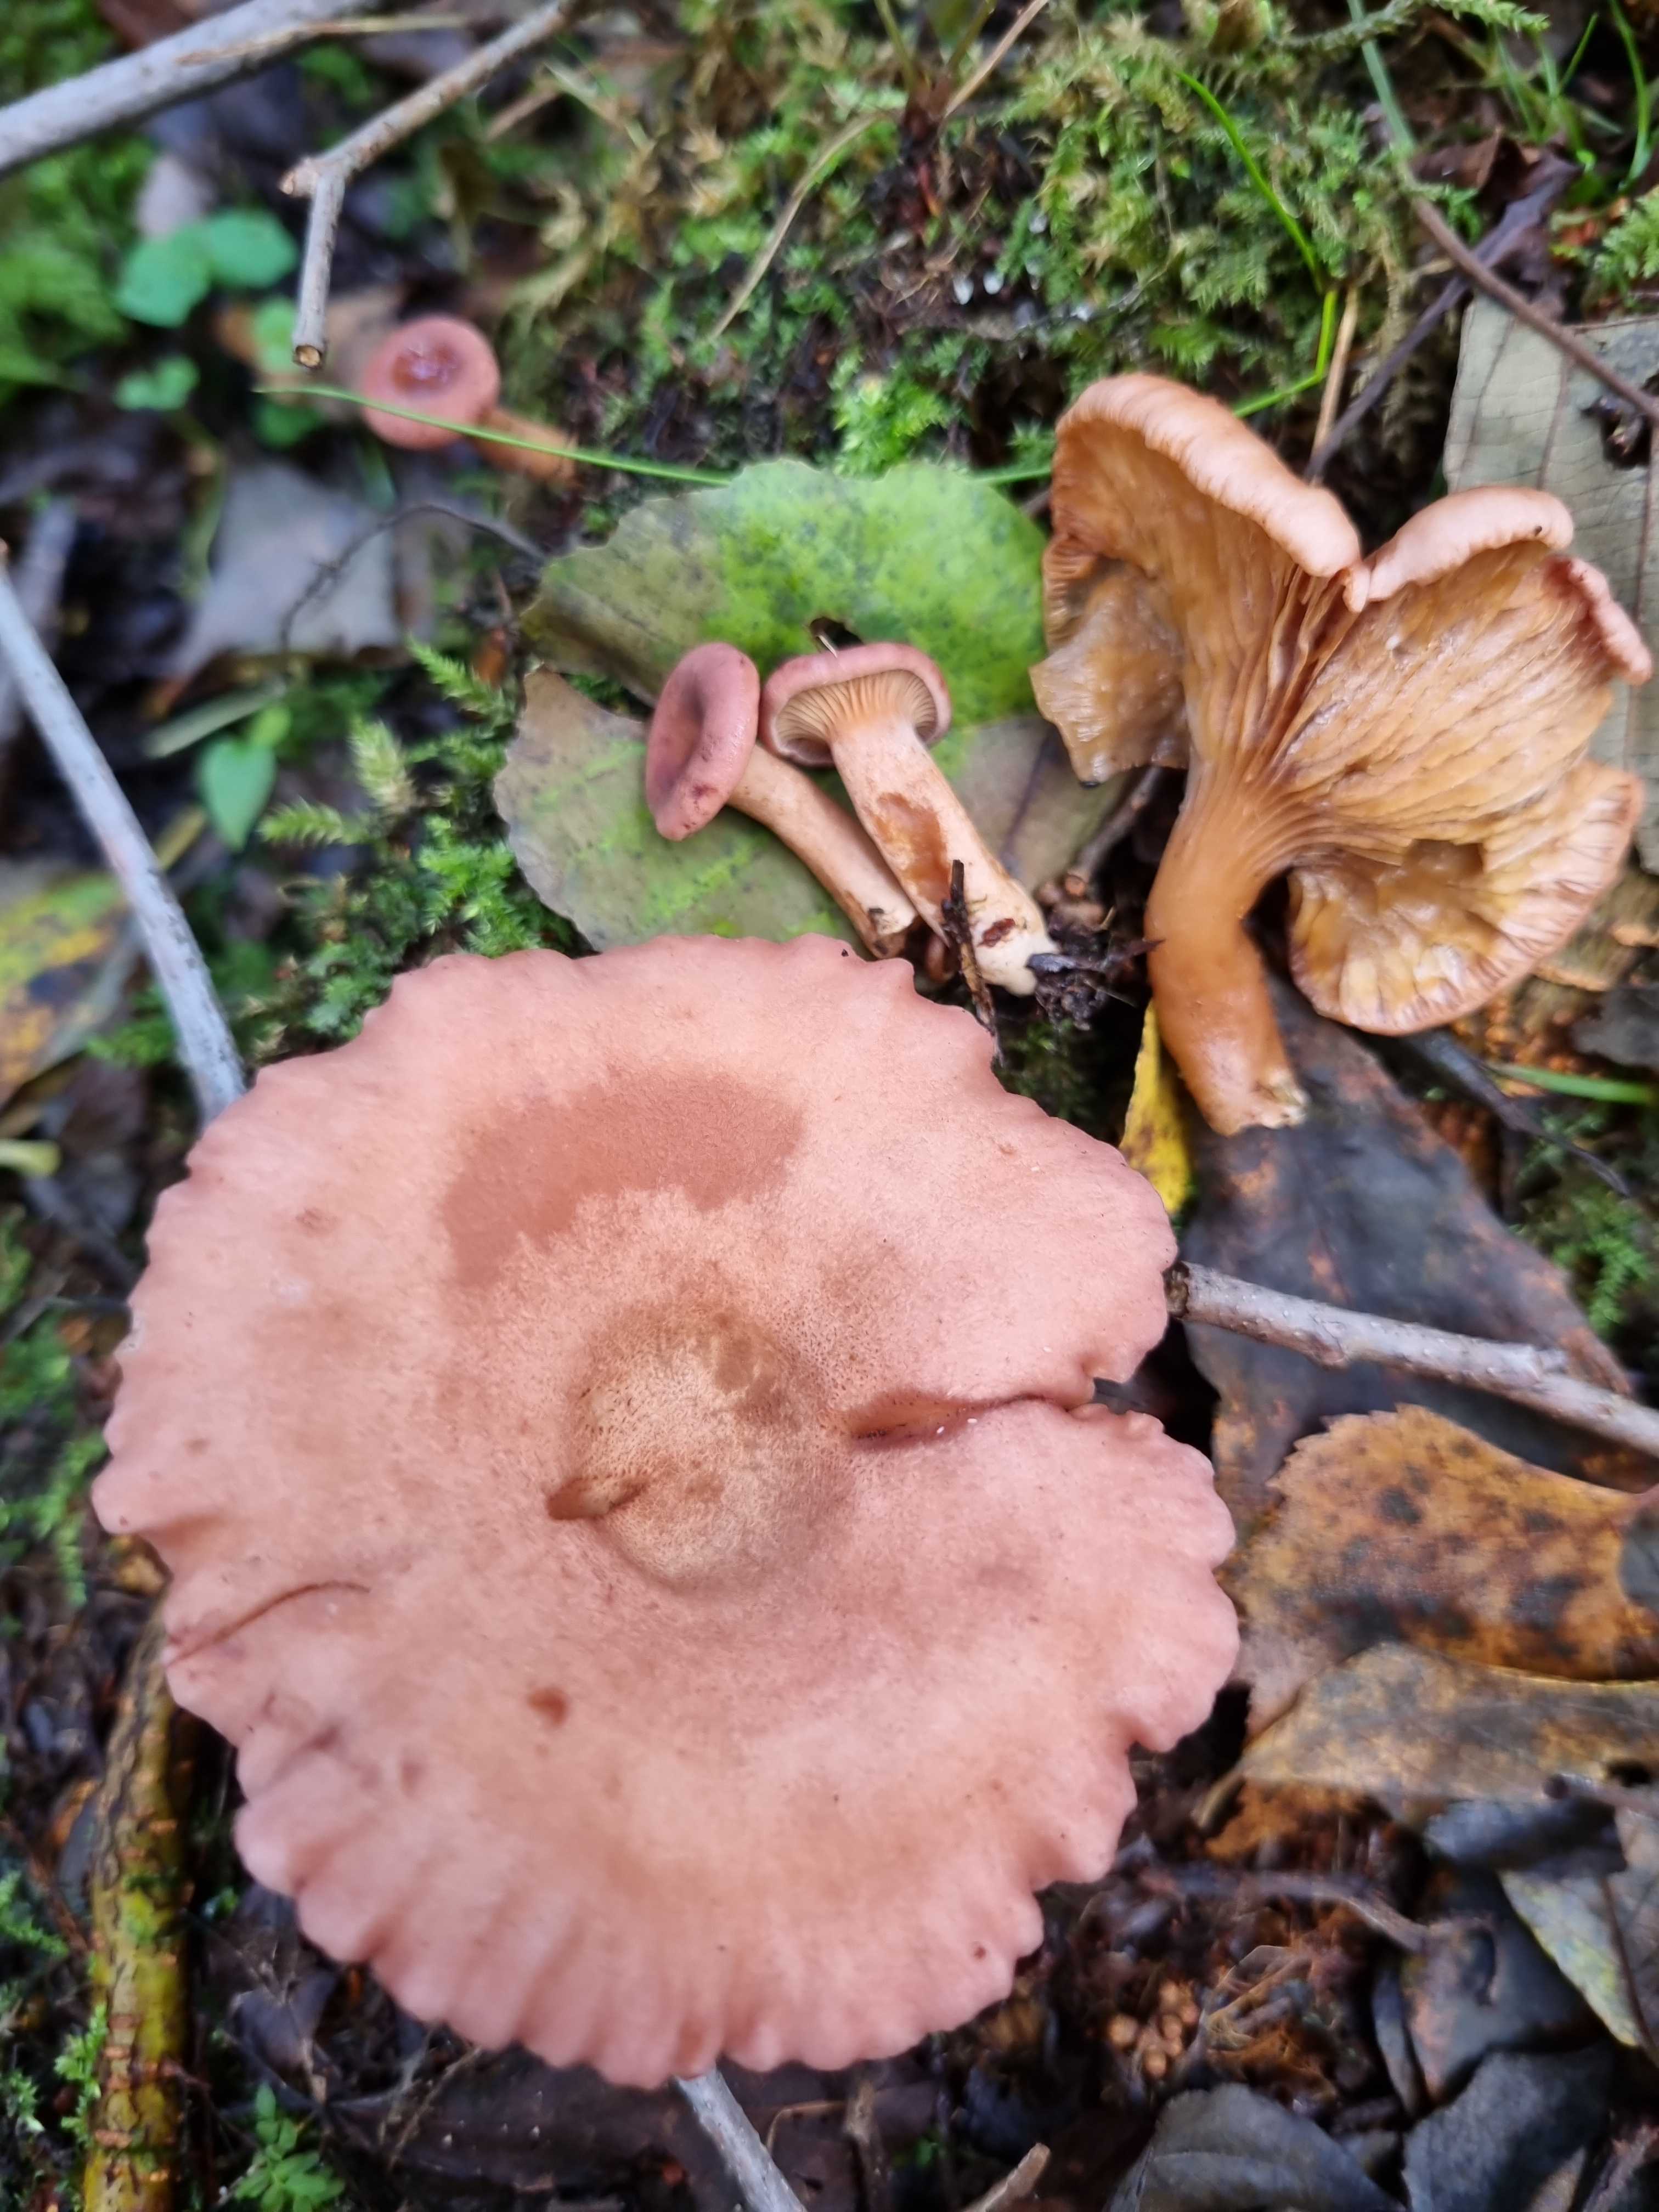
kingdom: Fungi
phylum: Basidiomycota
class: Agaricomycetes
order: Russulales
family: Russulaceae
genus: Lactarius
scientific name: Lactarius lilacinus
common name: lilla mælkehat
